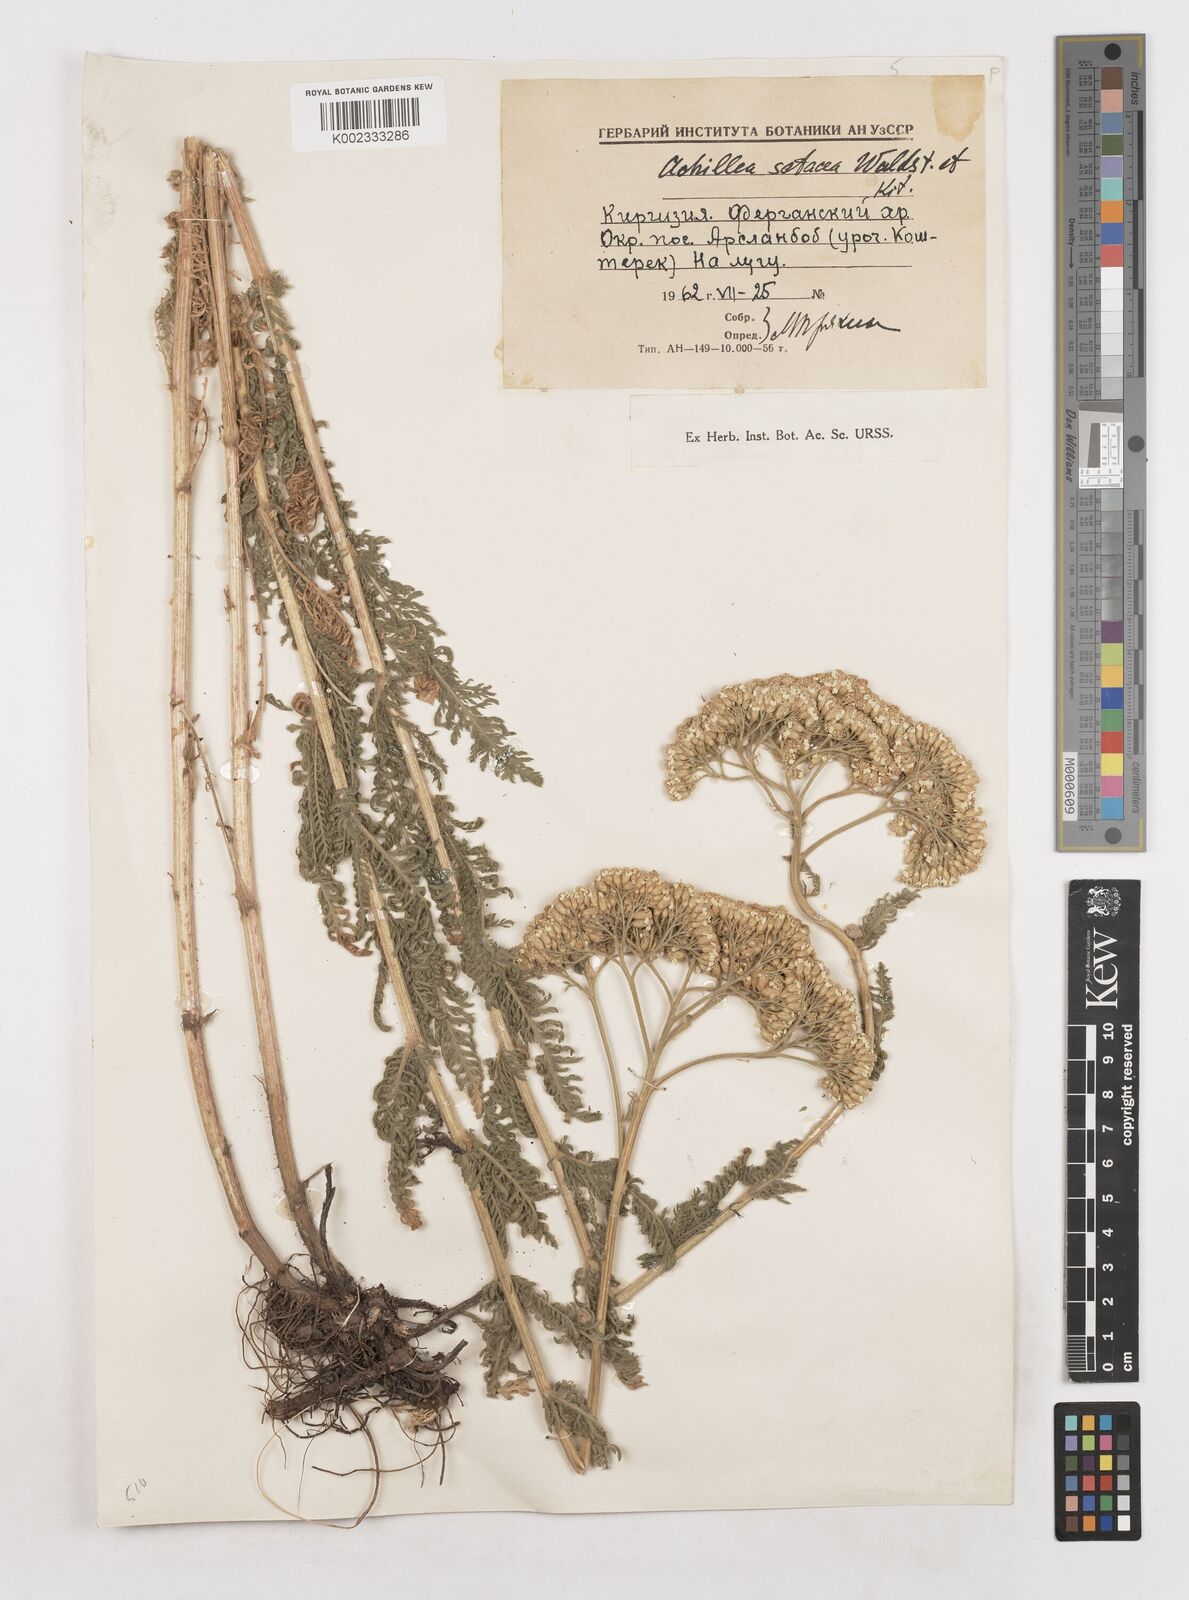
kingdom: Plantae
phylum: Tracheophyta
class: Magnoliopsida
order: Asterales
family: Asteraceae
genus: Achillea
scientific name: Achillea setacea
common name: Bristly yarrow
